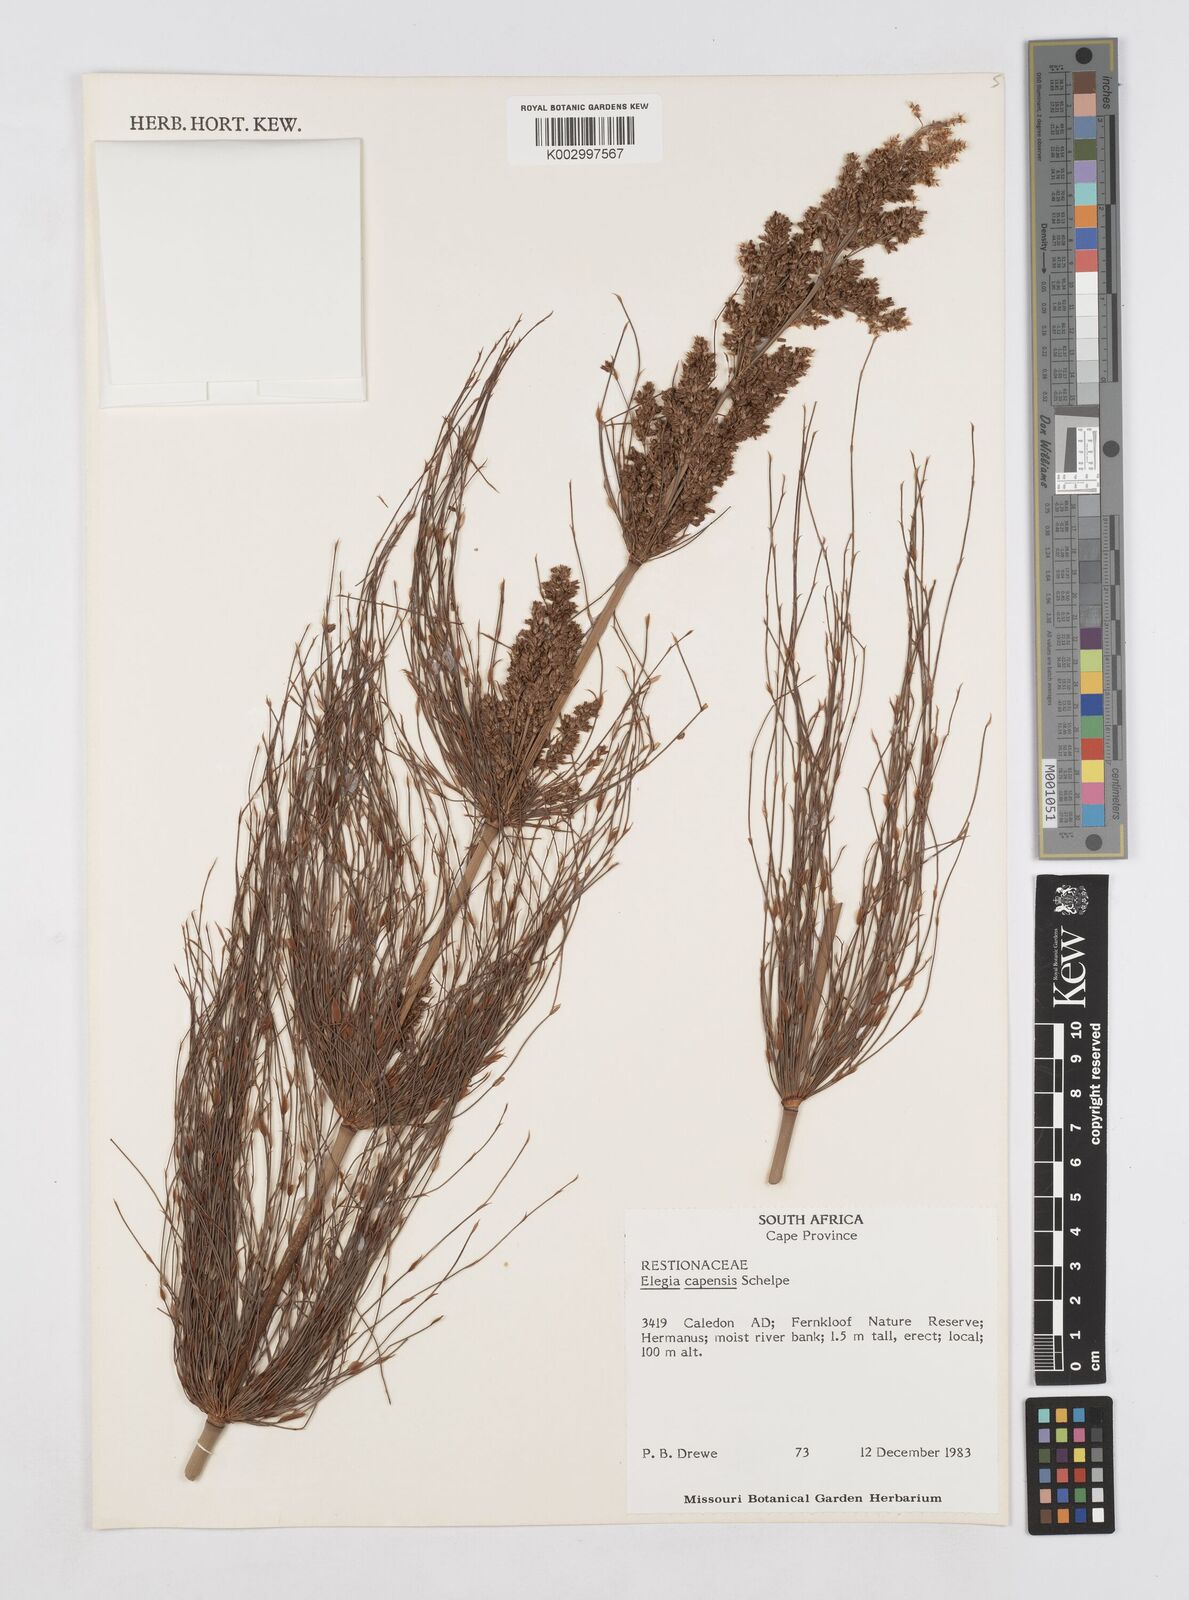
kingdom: Plantae
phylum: Tracheophyta
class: Liliopsida
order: Poales
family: Restionaceae
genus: Elegia
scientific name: Elegia capensis
